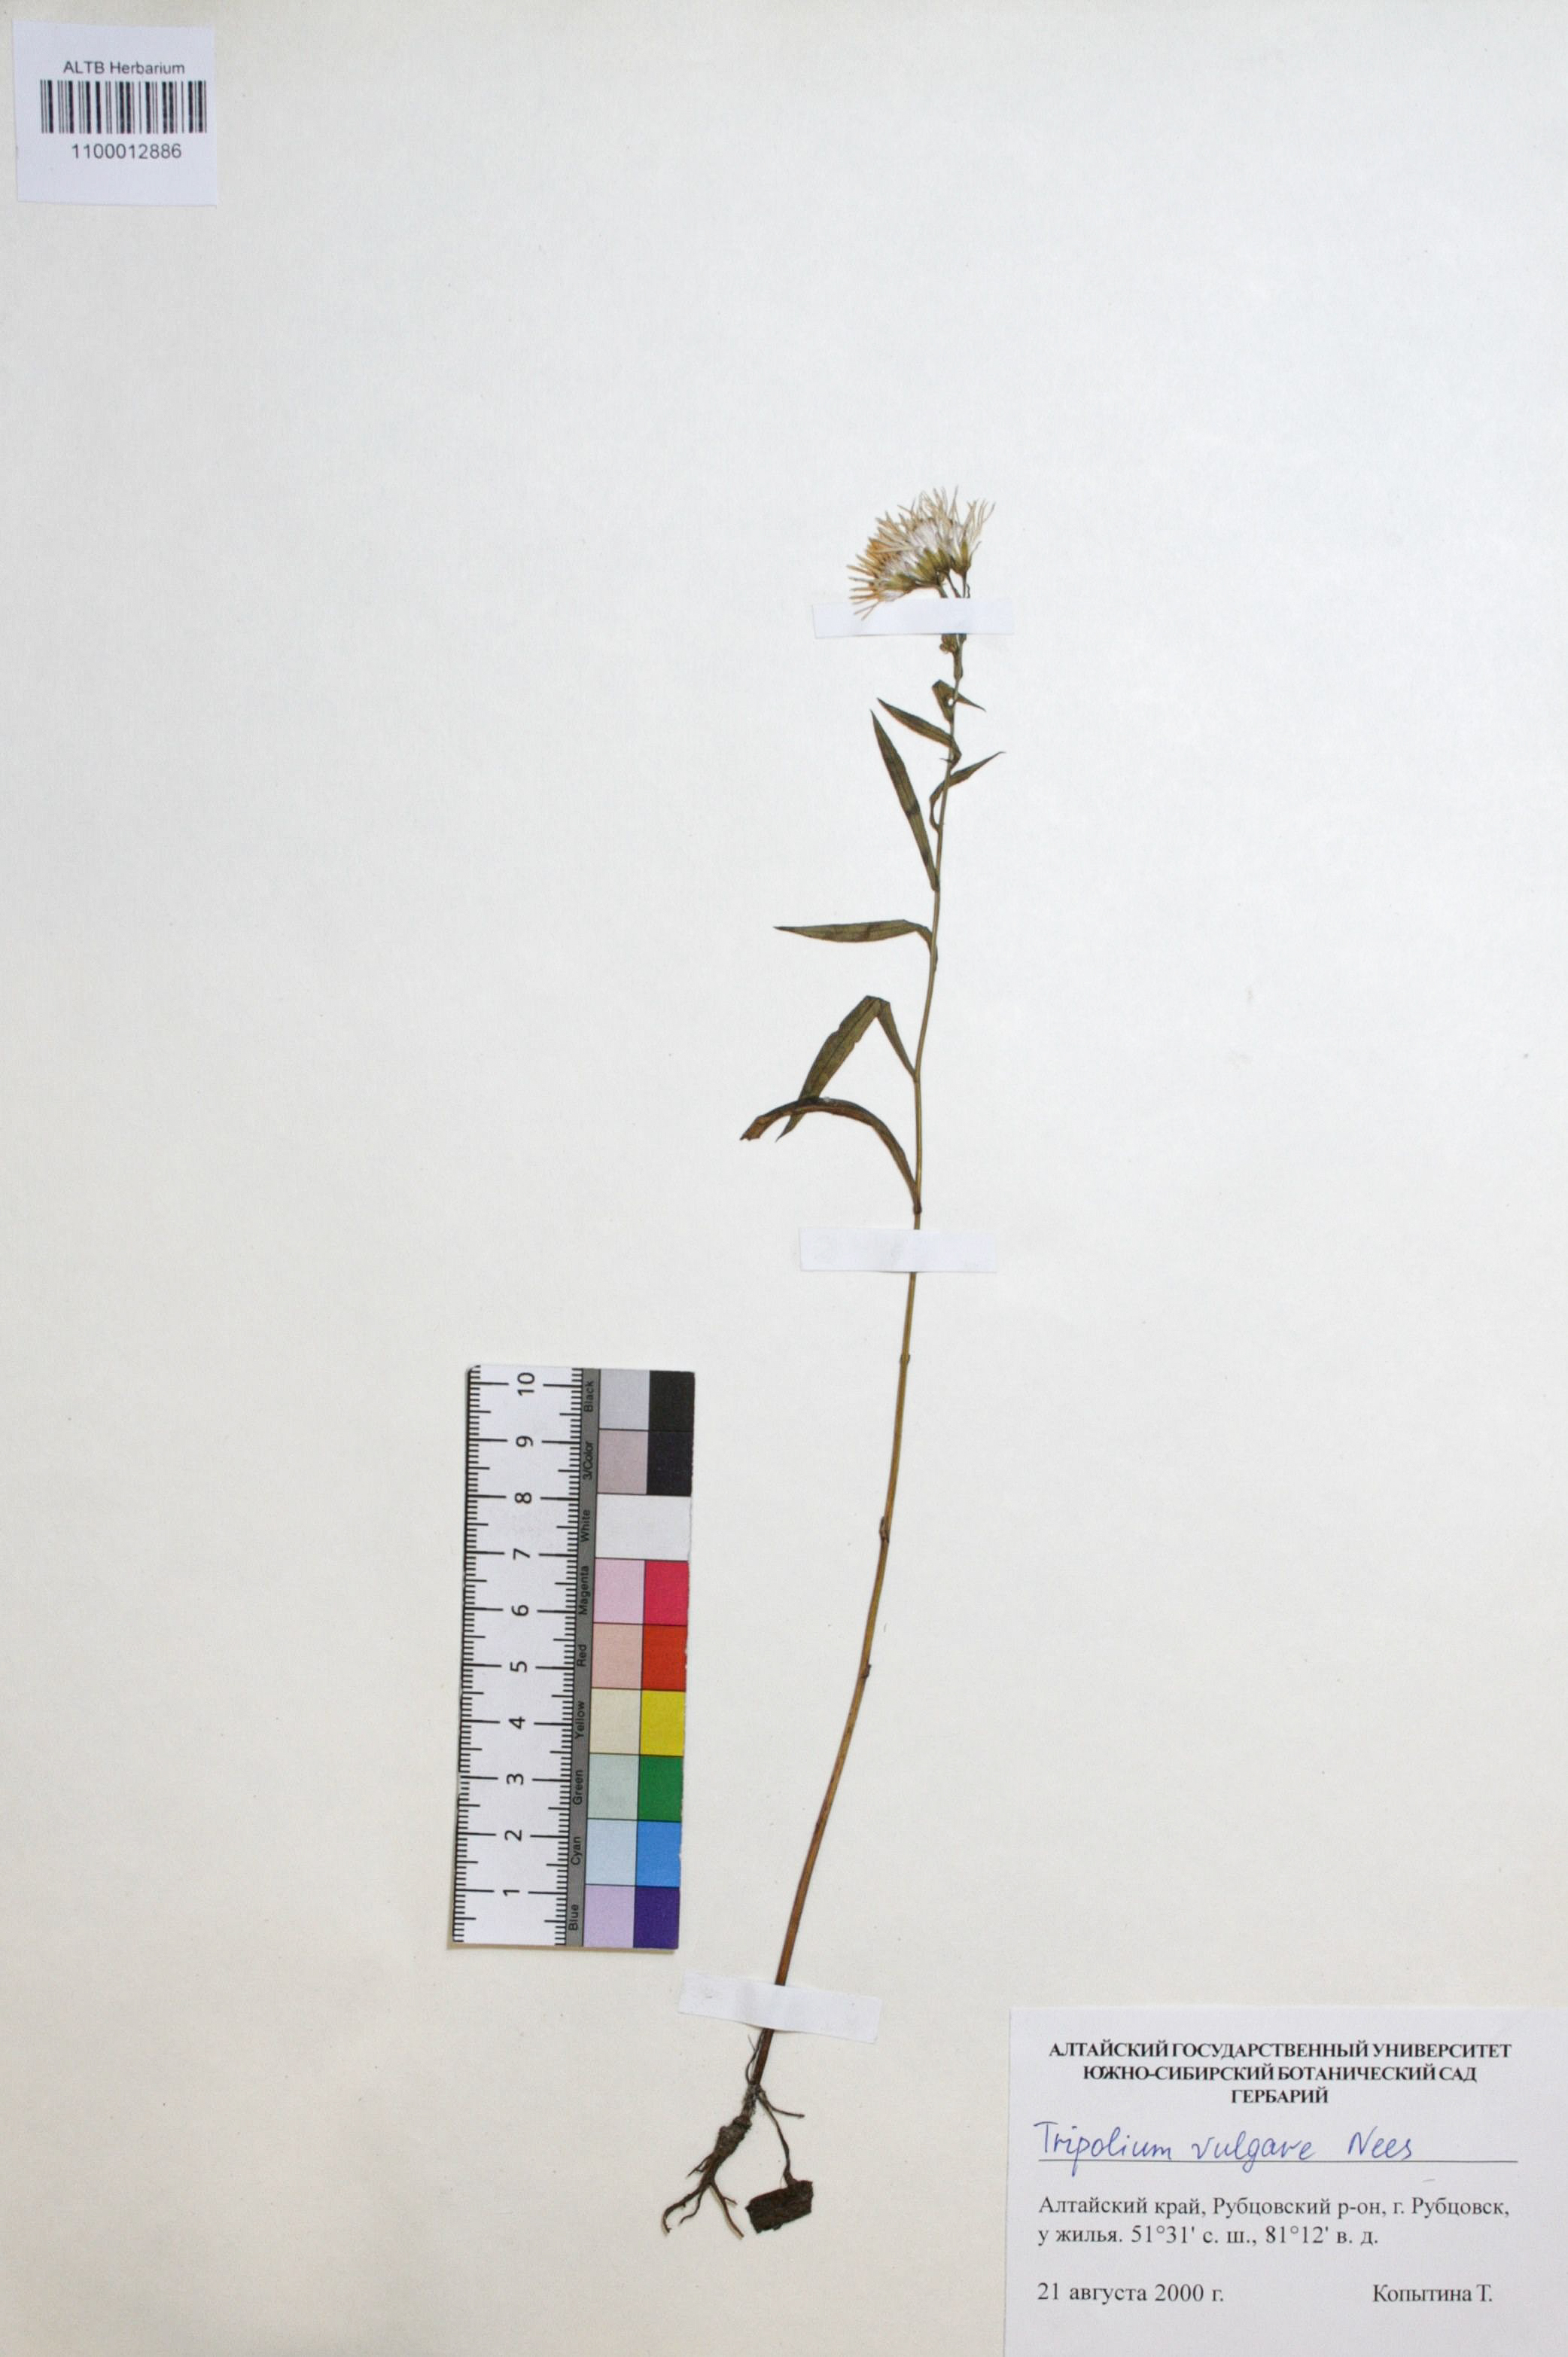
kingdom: Plantae
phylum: Tracheophyta
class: Magnoliopsida
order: Asterales
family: Asteraceae
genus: Tripolium
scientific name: Tripolium pannonicum
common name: Sea aster
